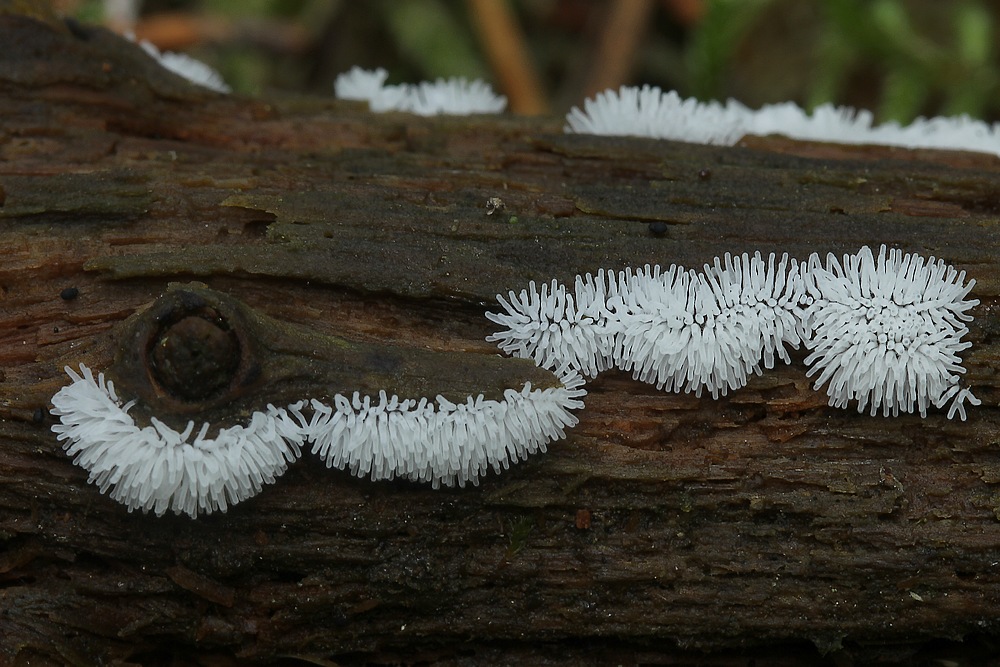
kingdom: Protozoa
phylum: Mycetozoa
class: Protosteliomycetes
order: Ceratiomyxales
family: Ceratiomyxaceae
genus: Ceratiomyxa
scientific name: Ceratiomyxa fruticulosa
